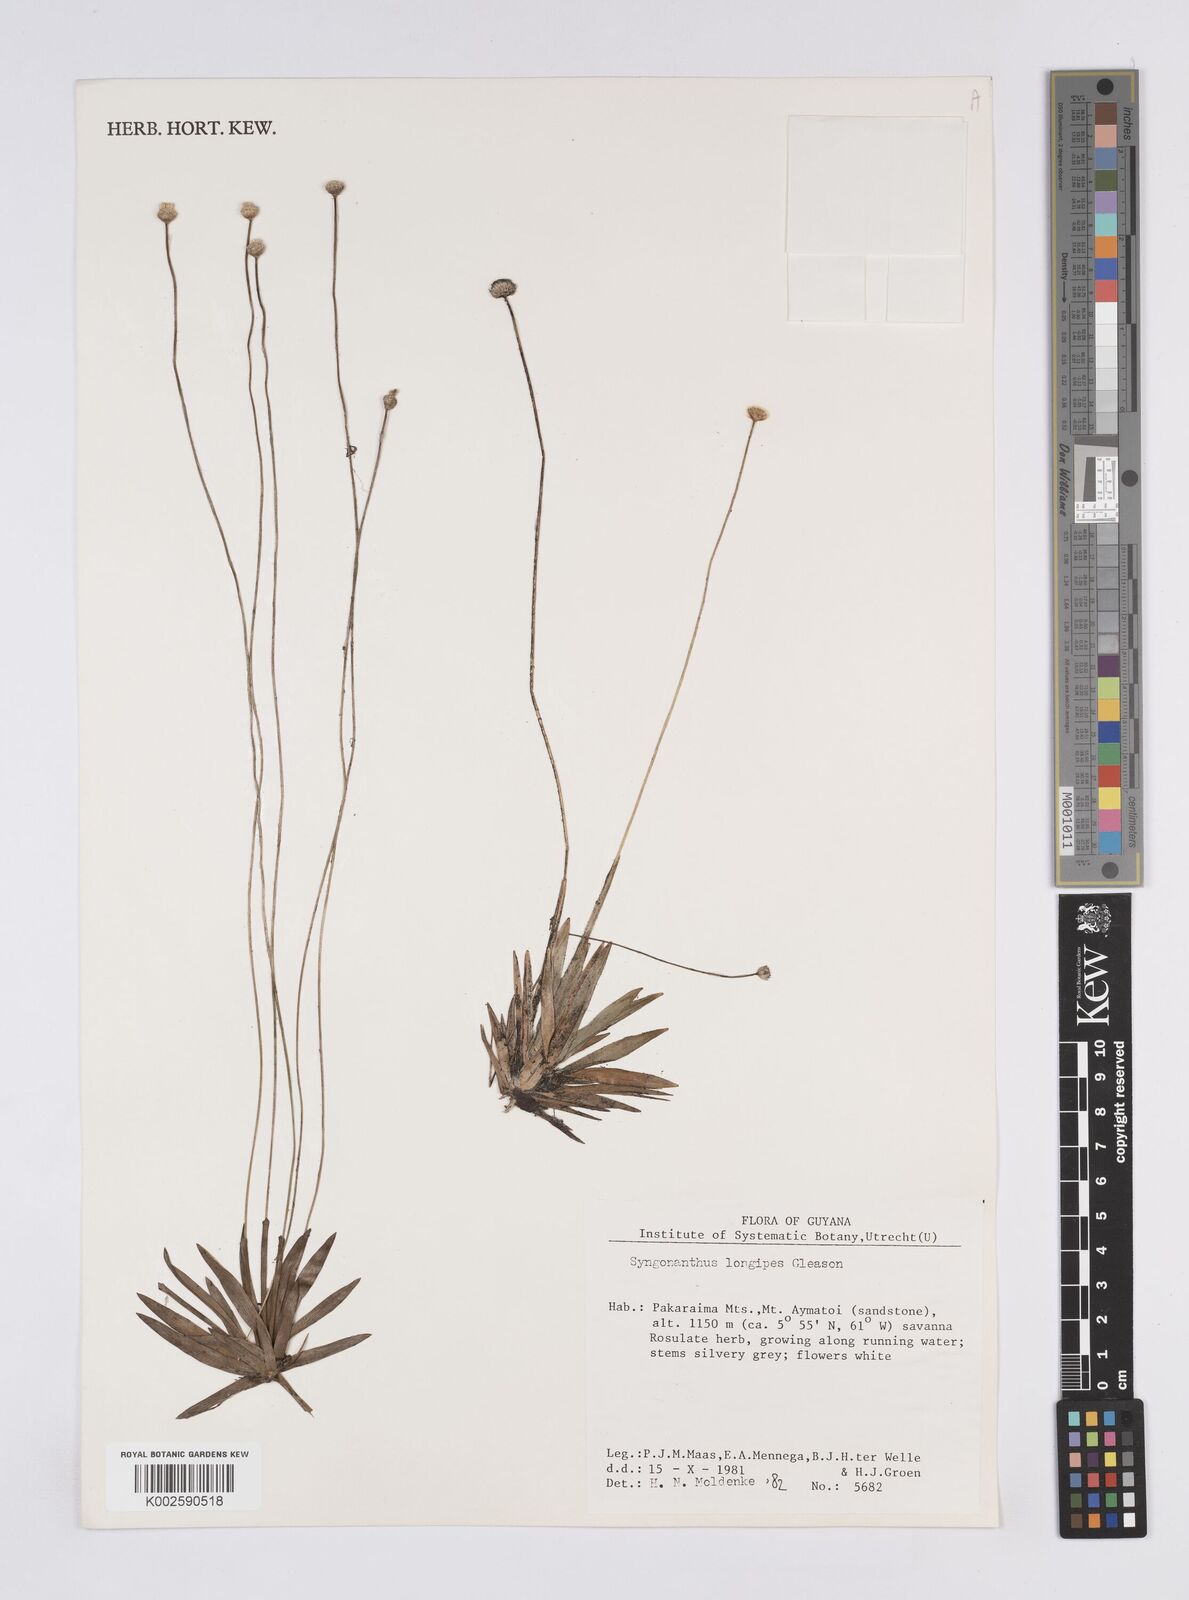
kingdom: Plantae
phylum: Tracheophyta
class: Liliopsida
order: Poales
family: Eriocaulaceae
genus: Syngonanthus
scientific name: Syngonanthus longipes
